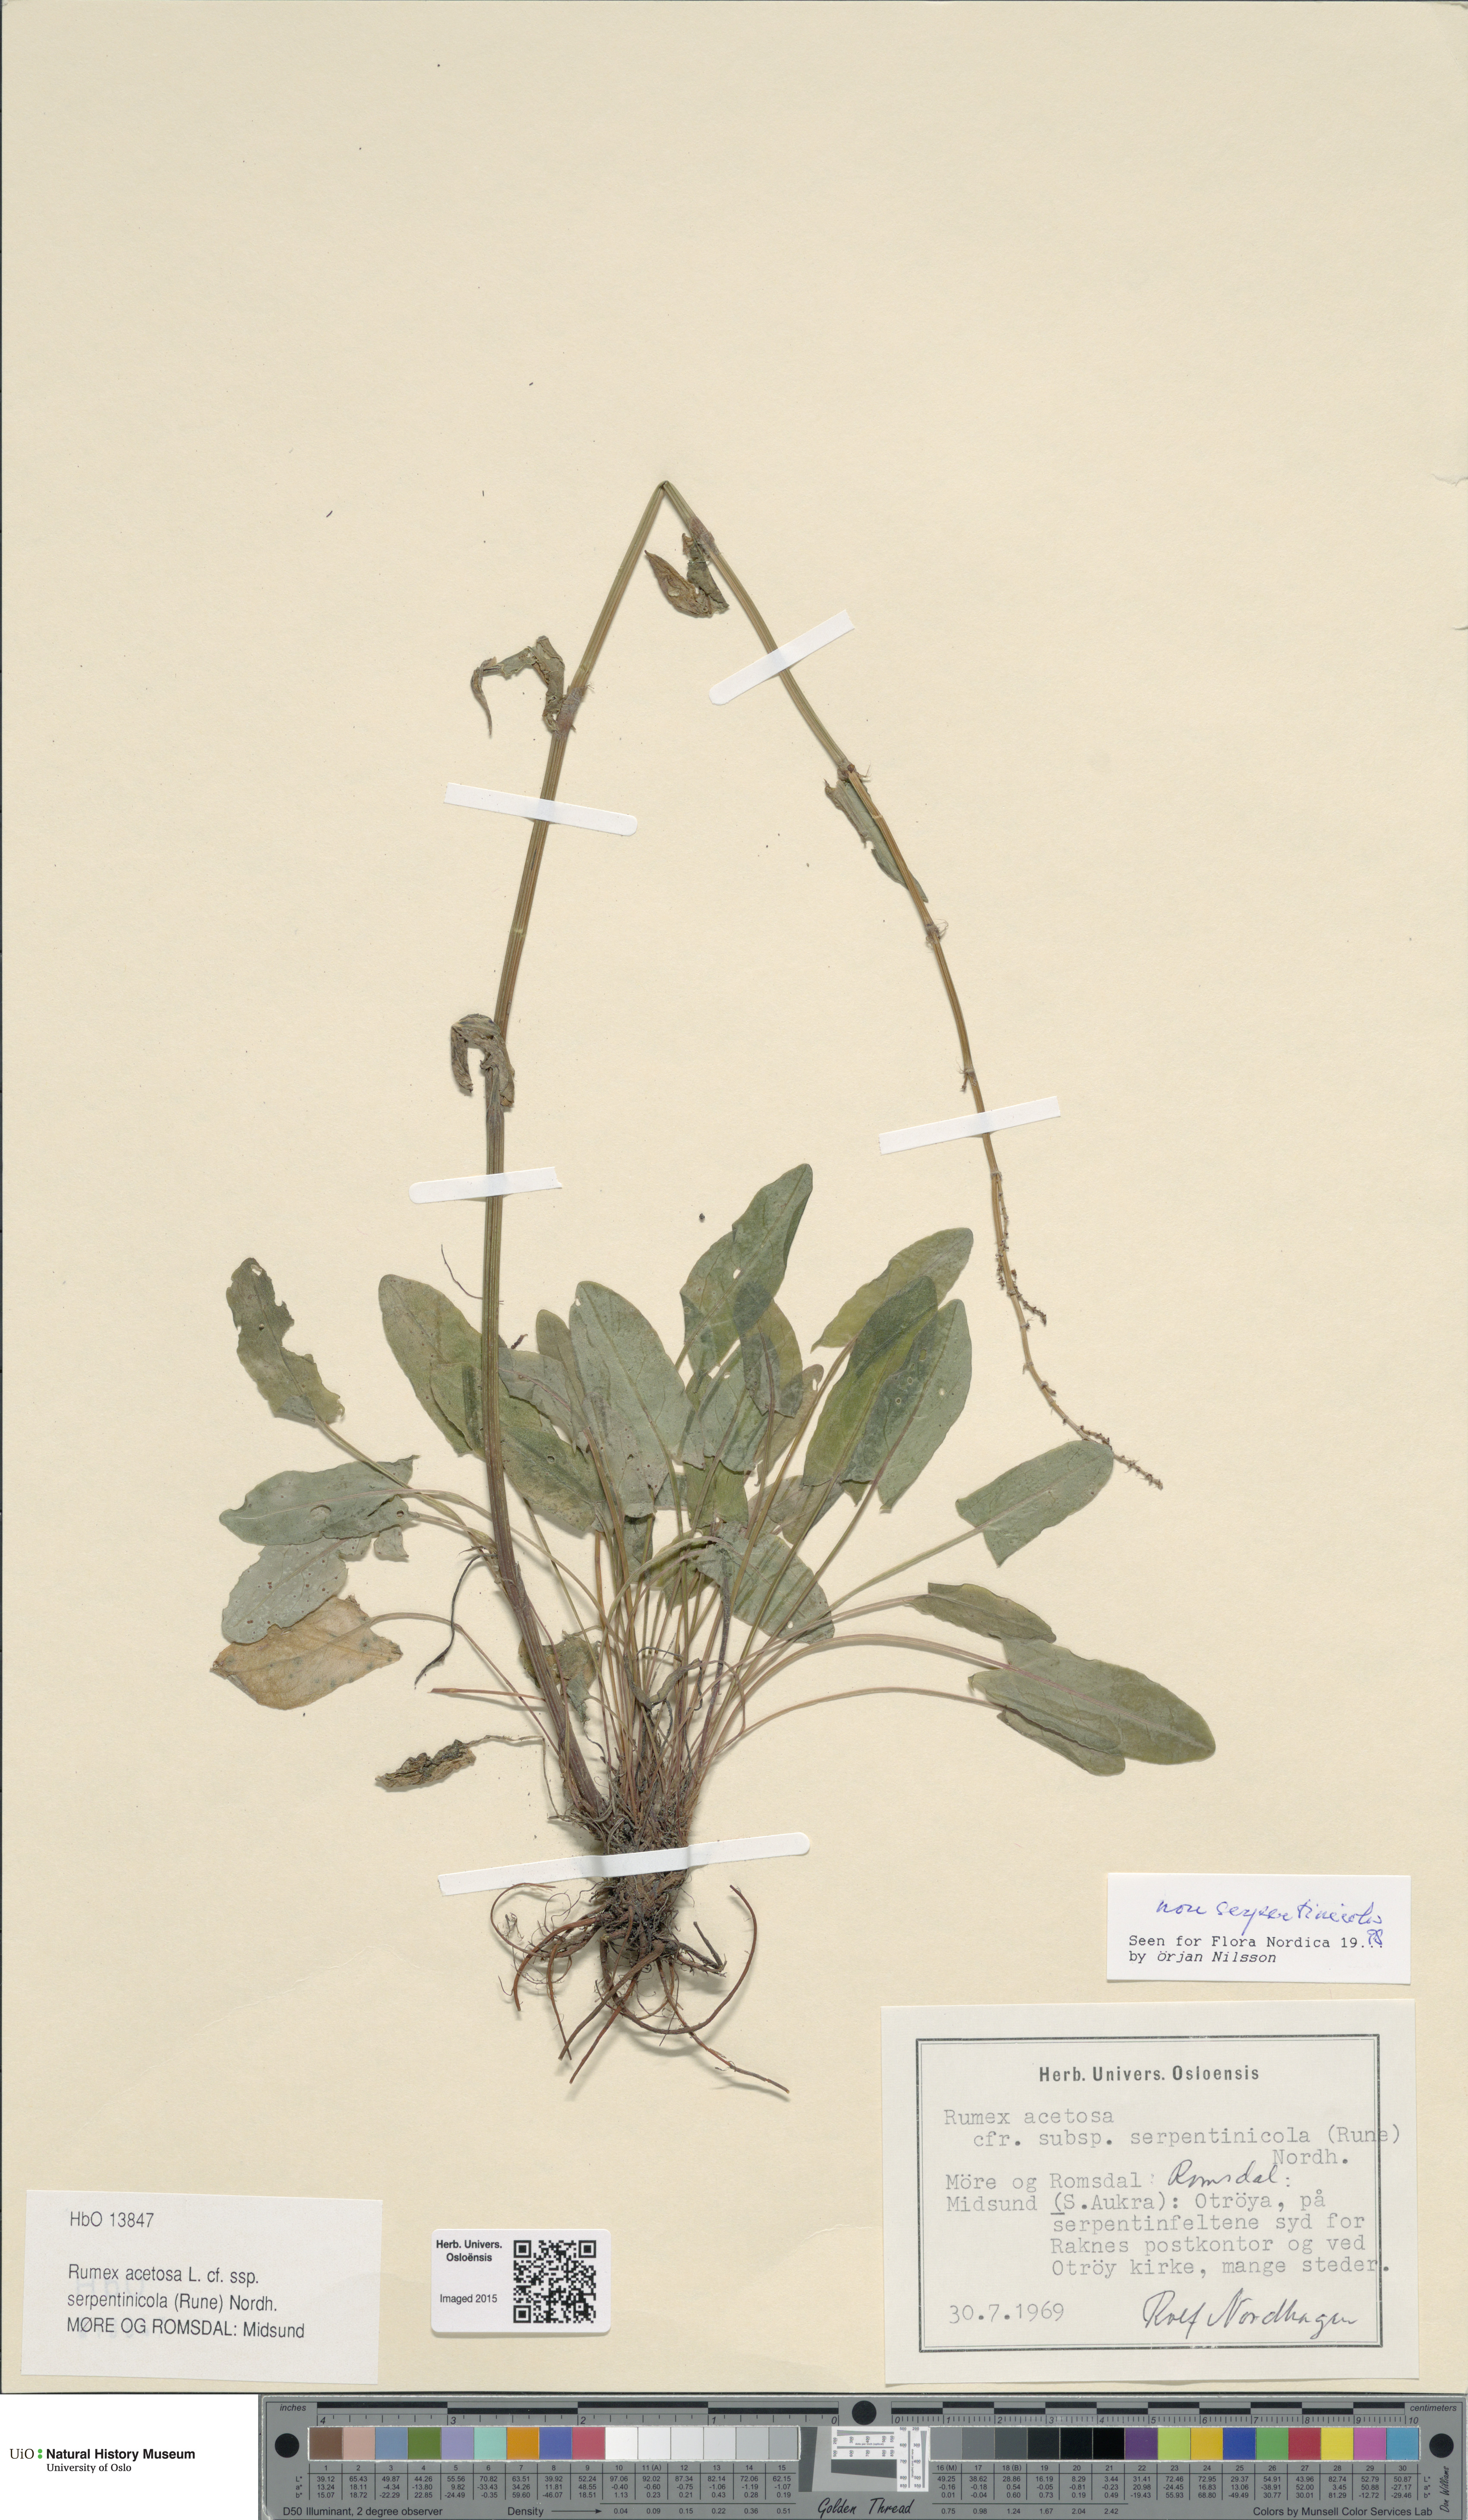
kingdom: Plantae
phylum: Tracheophyta
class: Magnoliopsida
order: Caryophyllales
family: Polygonaceae
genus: Rumex
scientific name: Rumex acetosa
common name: Garden sorrel
